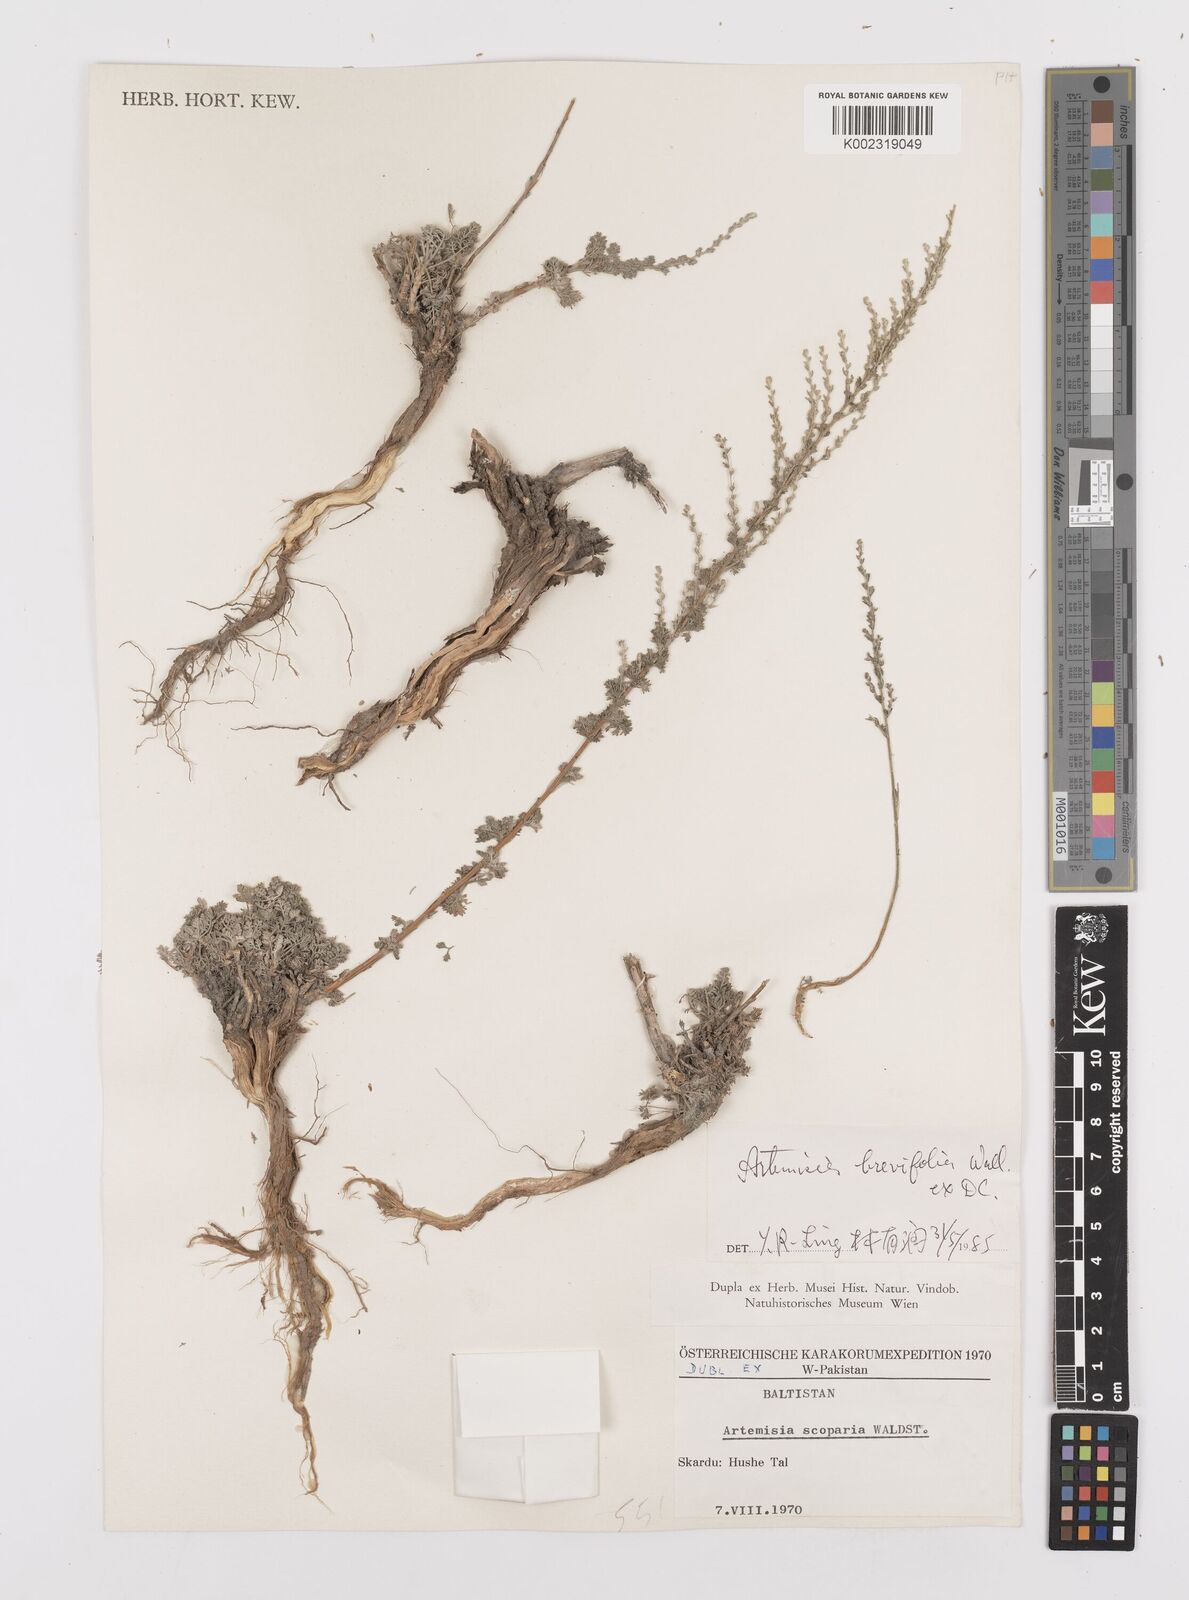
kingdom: Plantae
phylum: Tracheophyta
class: Magnoliopsida
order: Asterales
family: Asteraceae
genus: Artemisia
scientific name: Artemisia brevifolia
